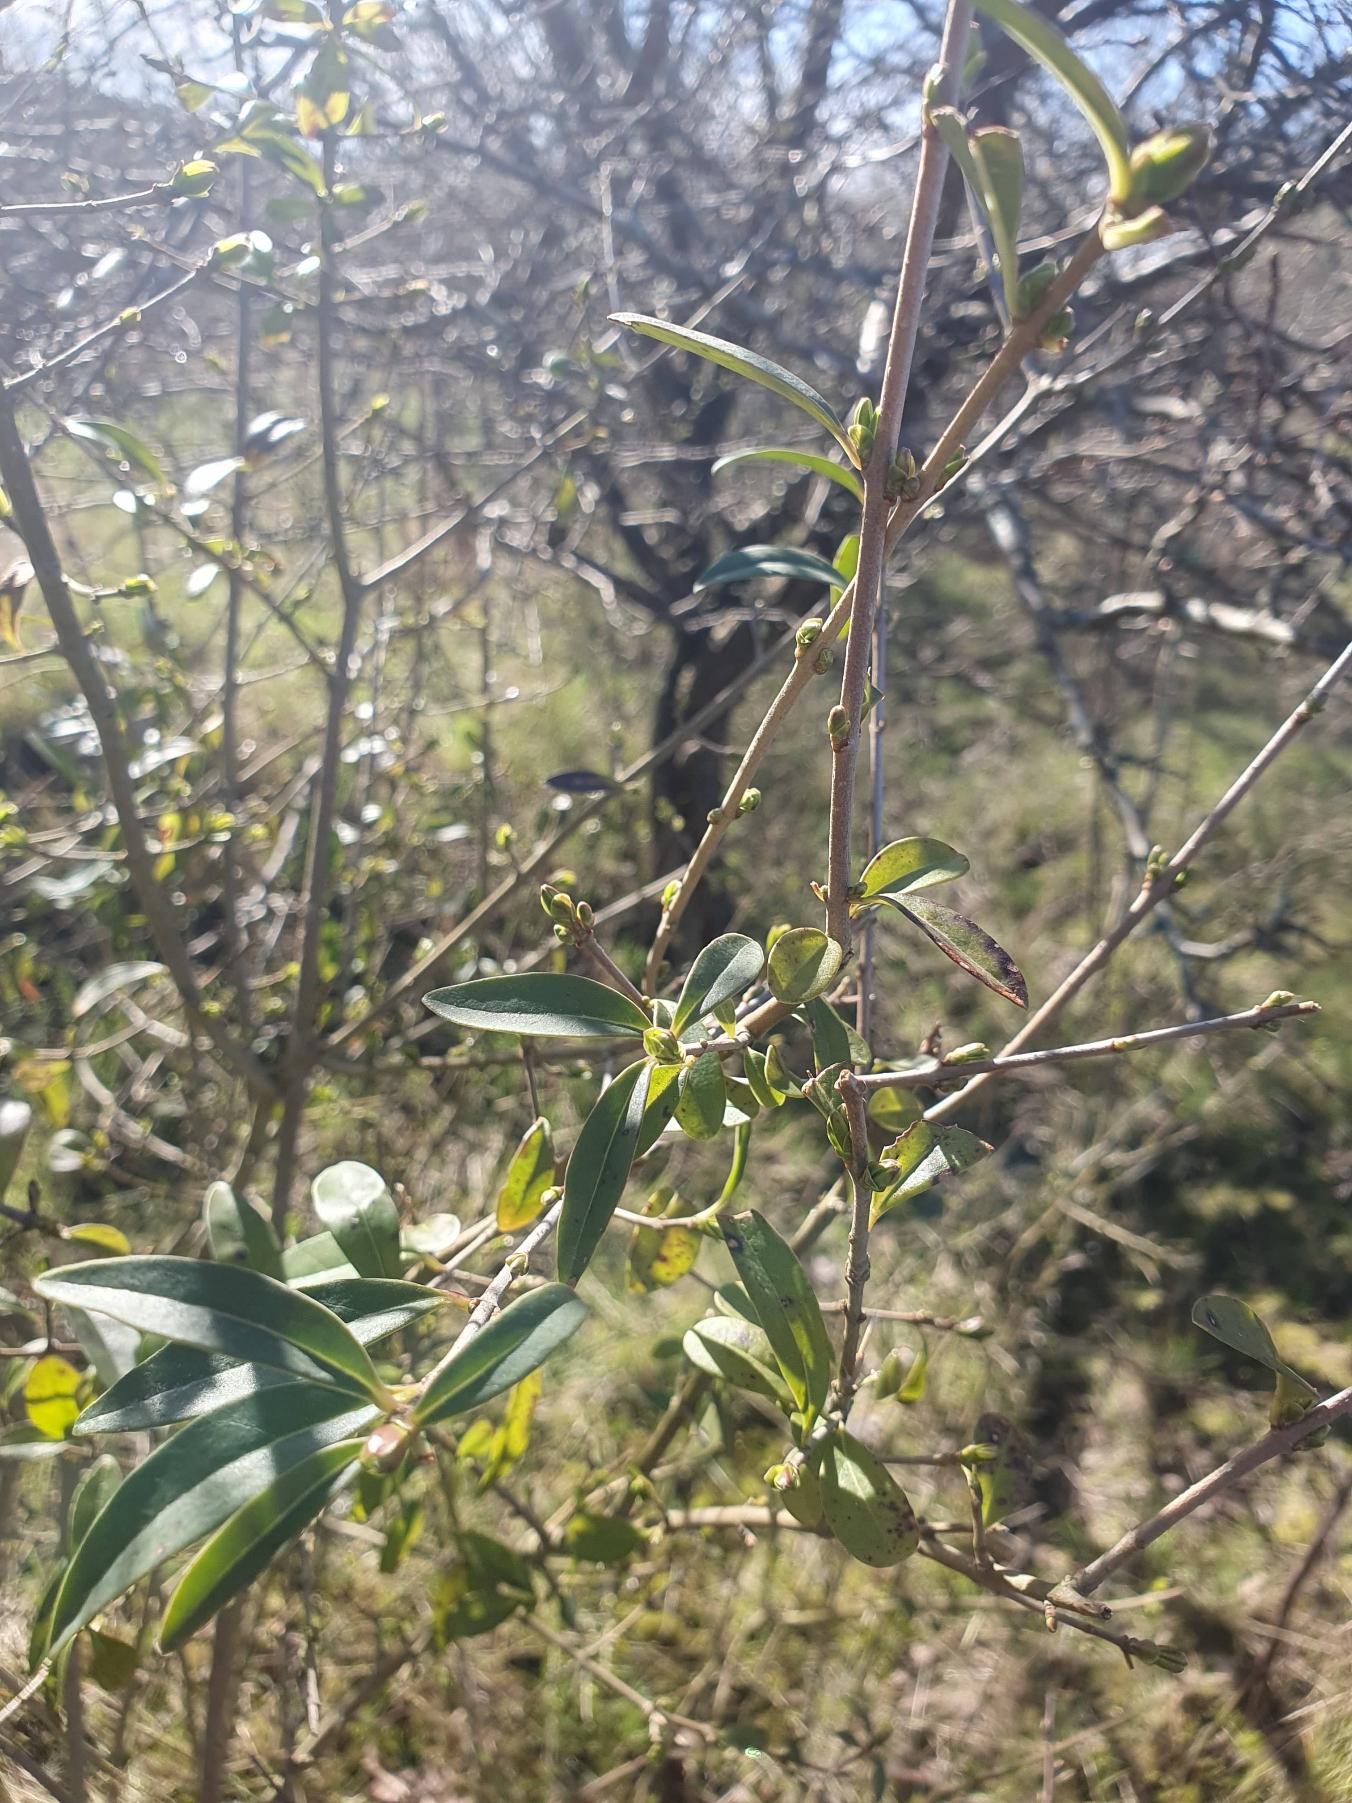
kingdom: Plantae
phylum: Tracheophyta
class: Magnoliopsida
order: Lamiales
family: Oleaceae
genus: Ligustrum
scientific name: Ligustrum vulgare
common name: Liguster
